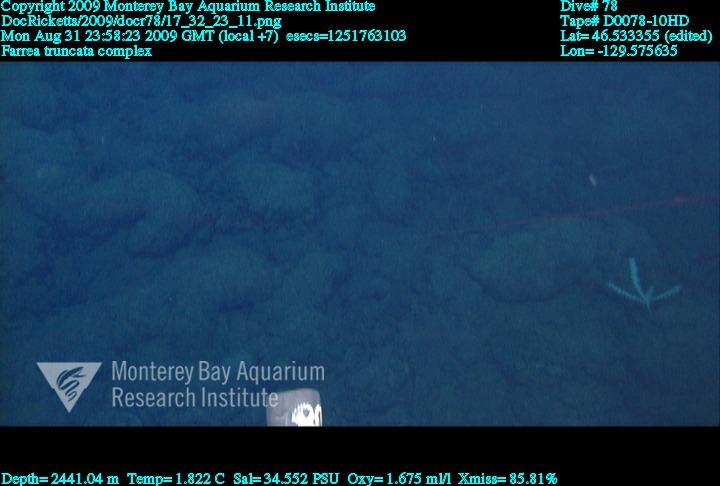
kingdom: Animalia
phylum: Porifera
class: Hexactinellida
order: Sceptrulophora
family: Farreidae
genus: Farrea
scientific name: Farrea truncata
